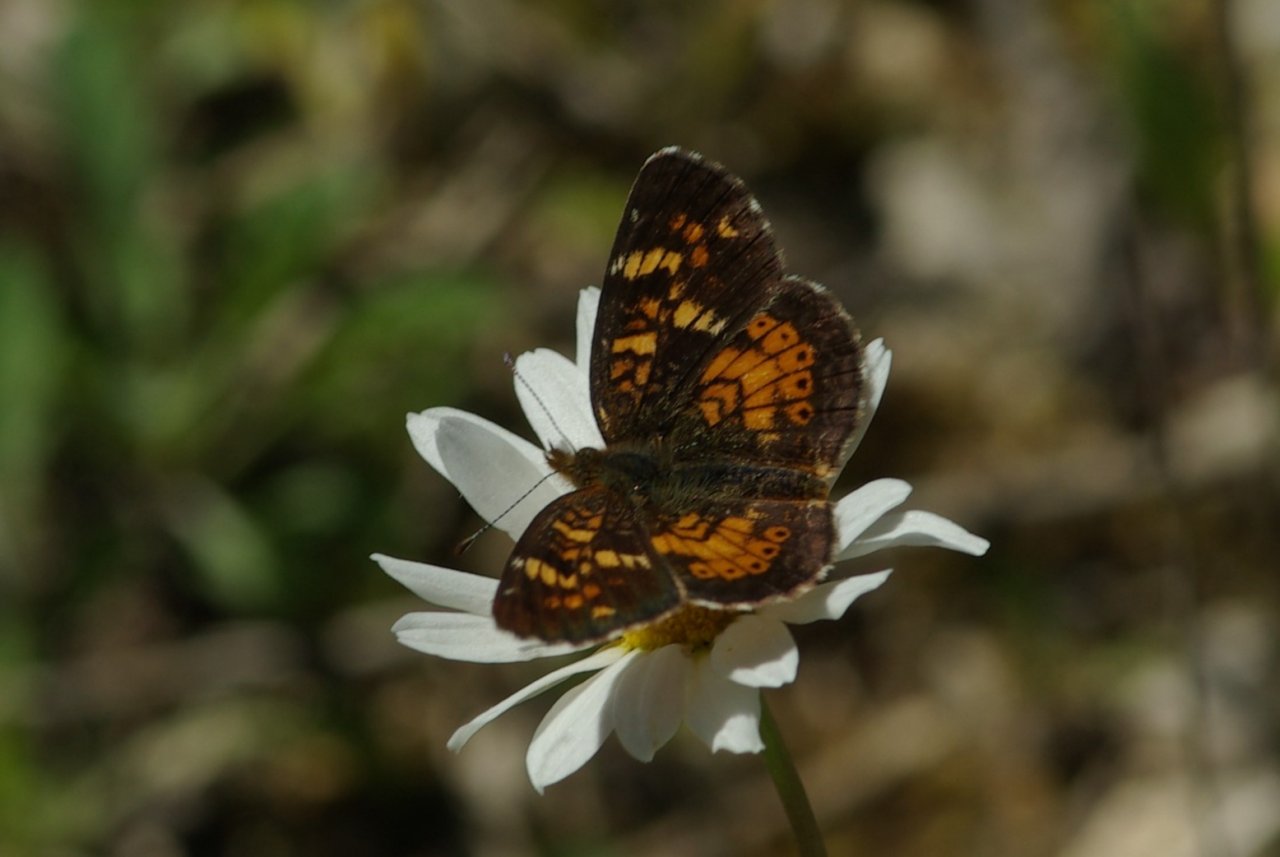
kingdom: Animalia
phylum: Arthropoda
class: Insecta
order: Lepidoptera
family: Nymphalidae
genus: Phyciodes
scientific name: Phyciodes batesii
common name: Tawny Crescent
